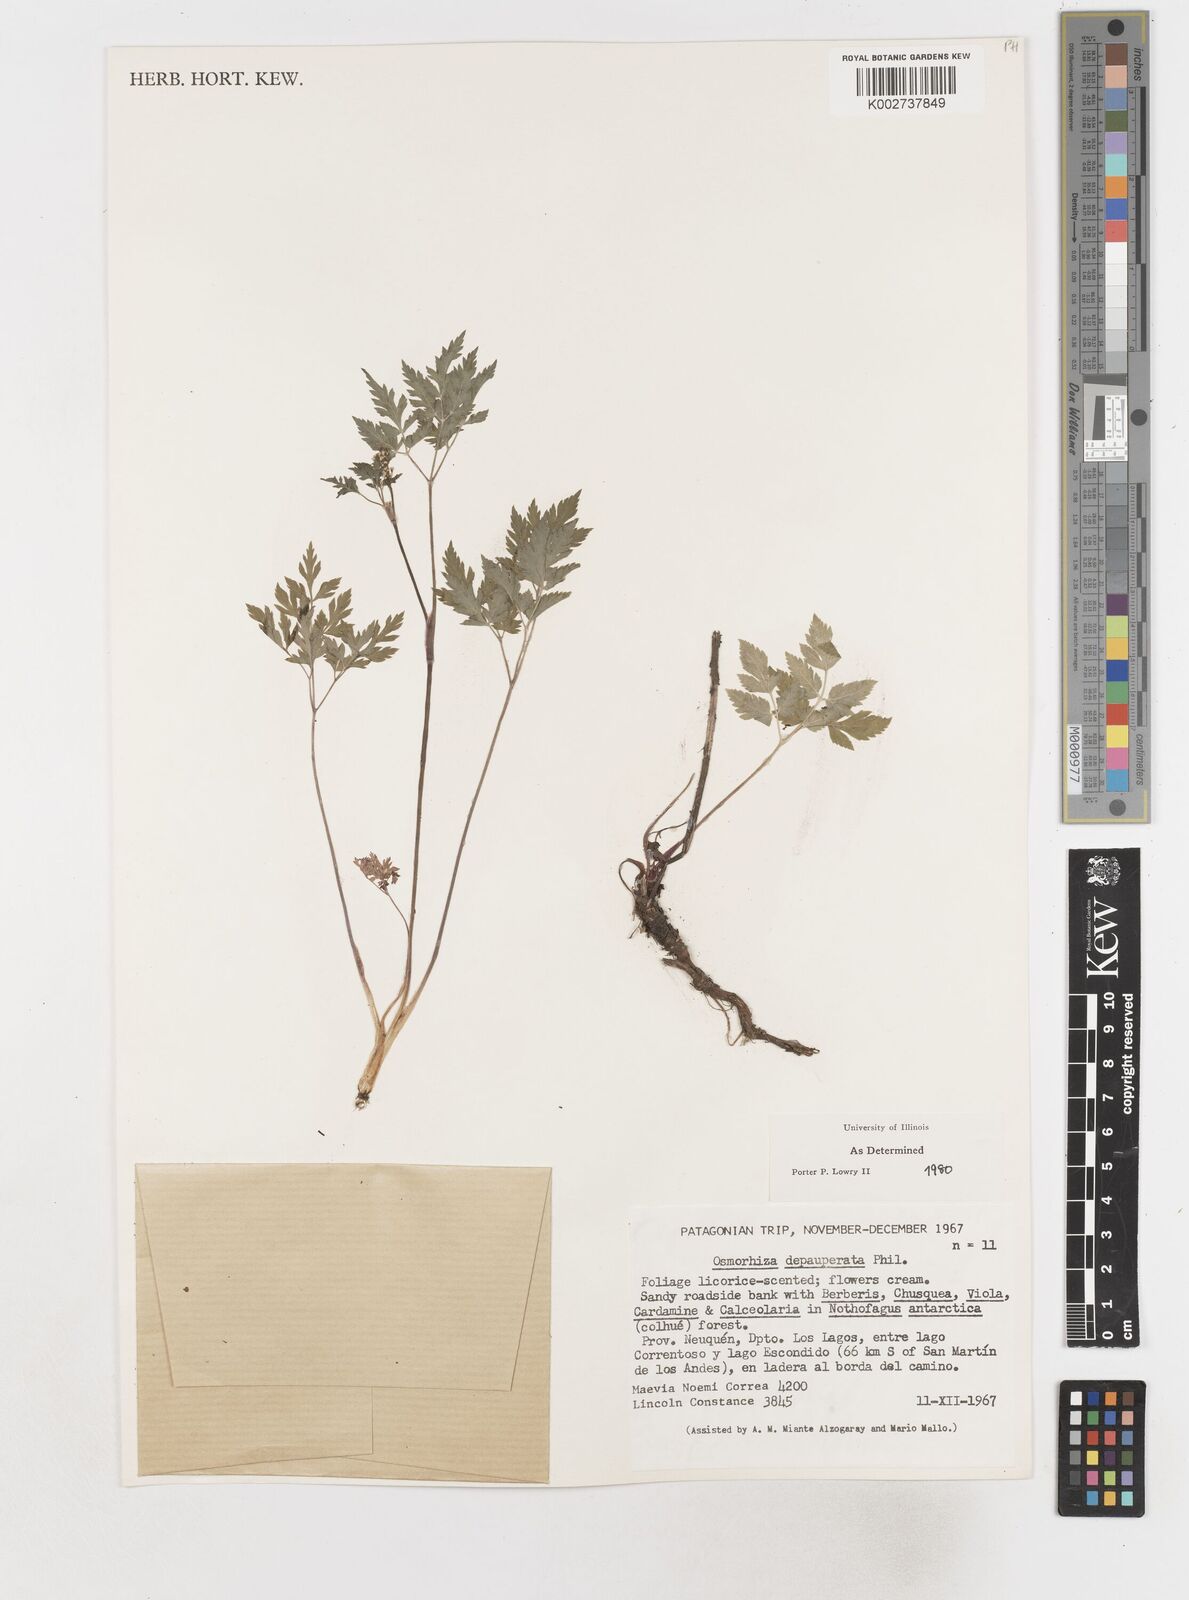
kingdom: Plantae
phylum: Tracheophyta
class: Magnoliopsida
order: Apiales
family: Apiaceae
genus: Osmorhiza
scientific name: Osmorhiza depauperata
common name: Blunt sweet cicely
